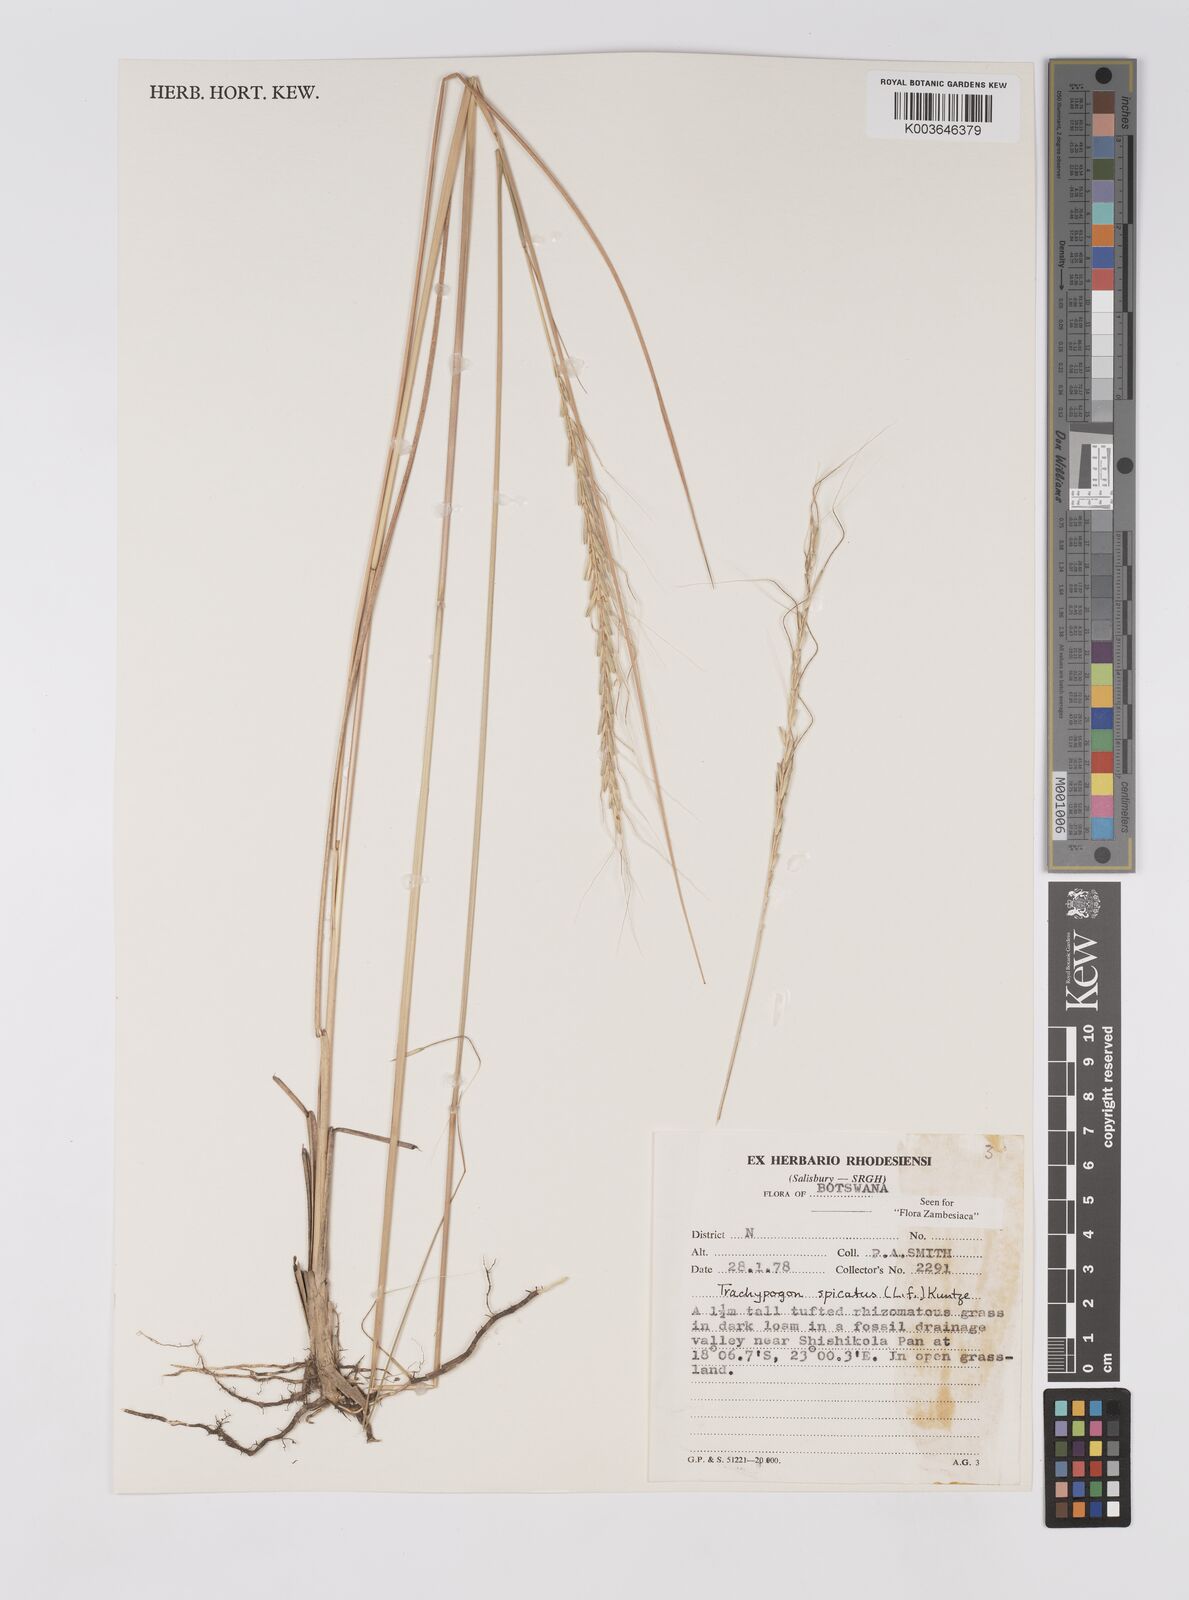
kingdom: Plantae
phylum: Tracheophyta
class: Liliopsida
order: Poales
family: Poaceae
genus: Trachypogon
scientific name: Trachypogon spicatus
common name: Crinkle-awn
